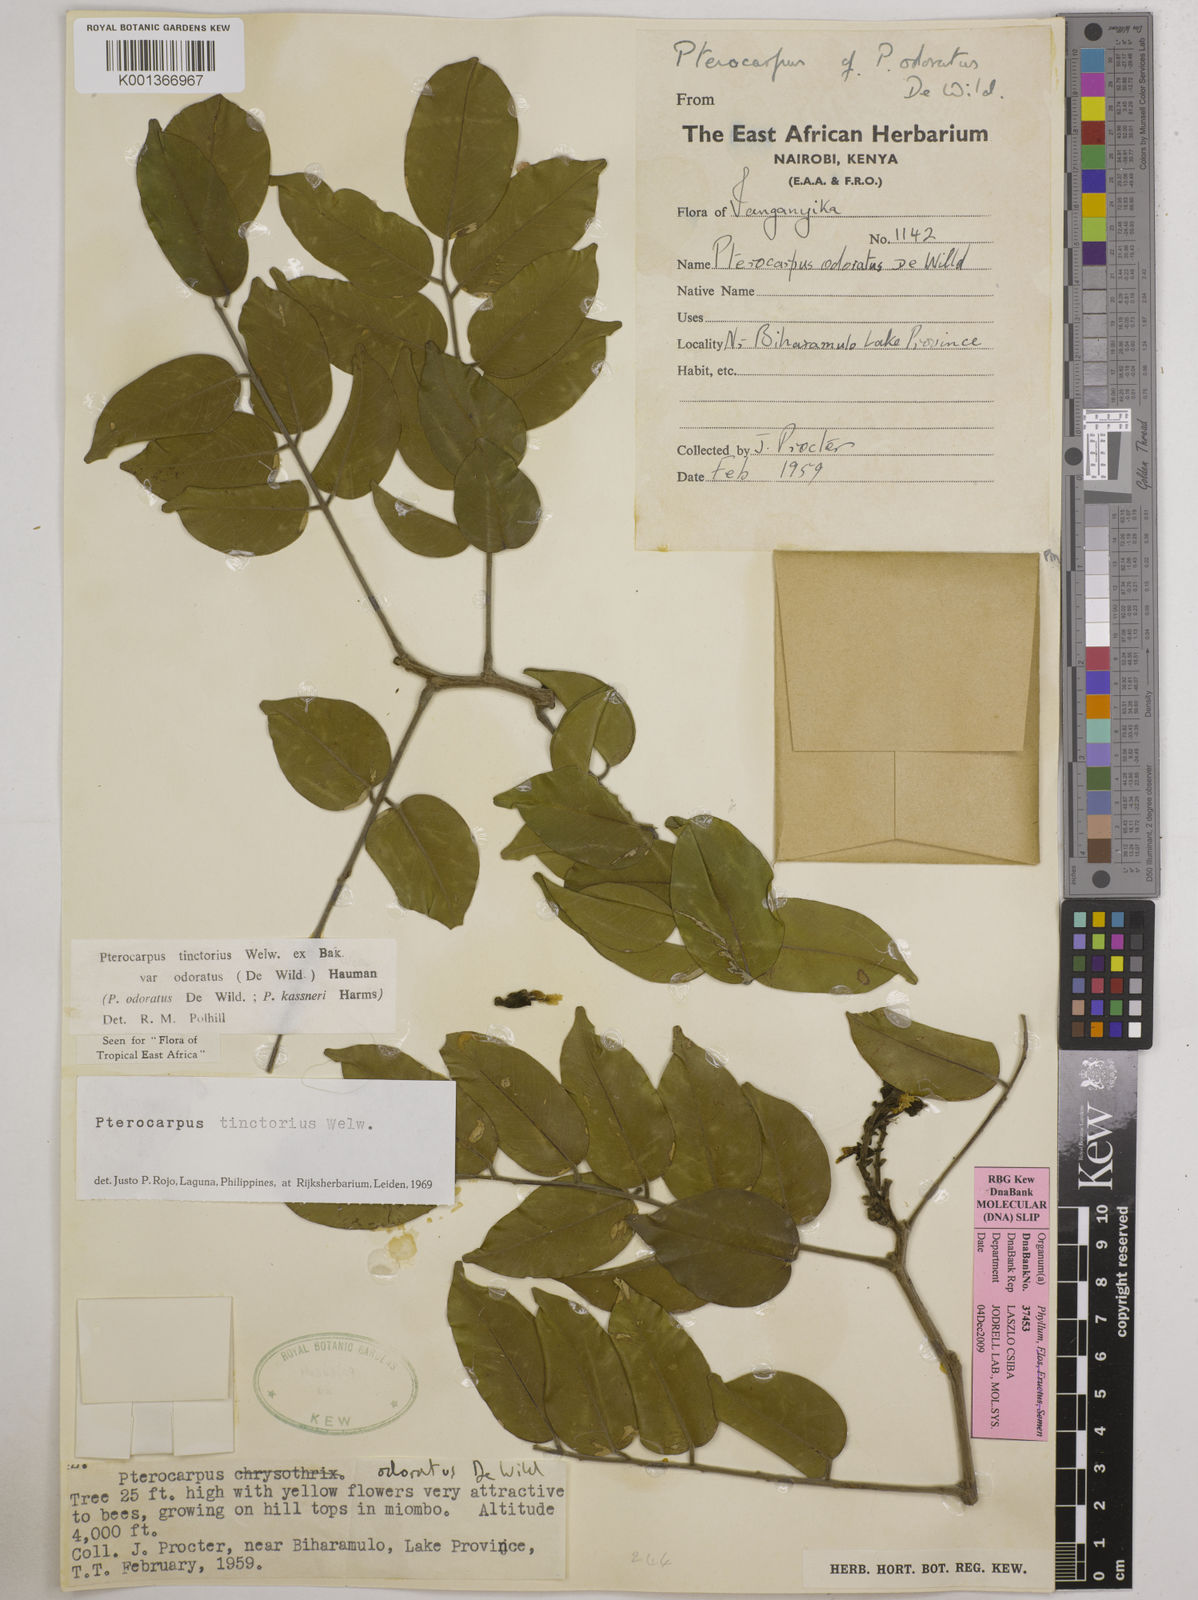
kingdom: Plantae
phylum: Tracheophyta
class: Magnoliopsida
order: Fabales
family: Fabaceae
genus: Pterocarpus
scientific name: Pterocarpus tinctorius
